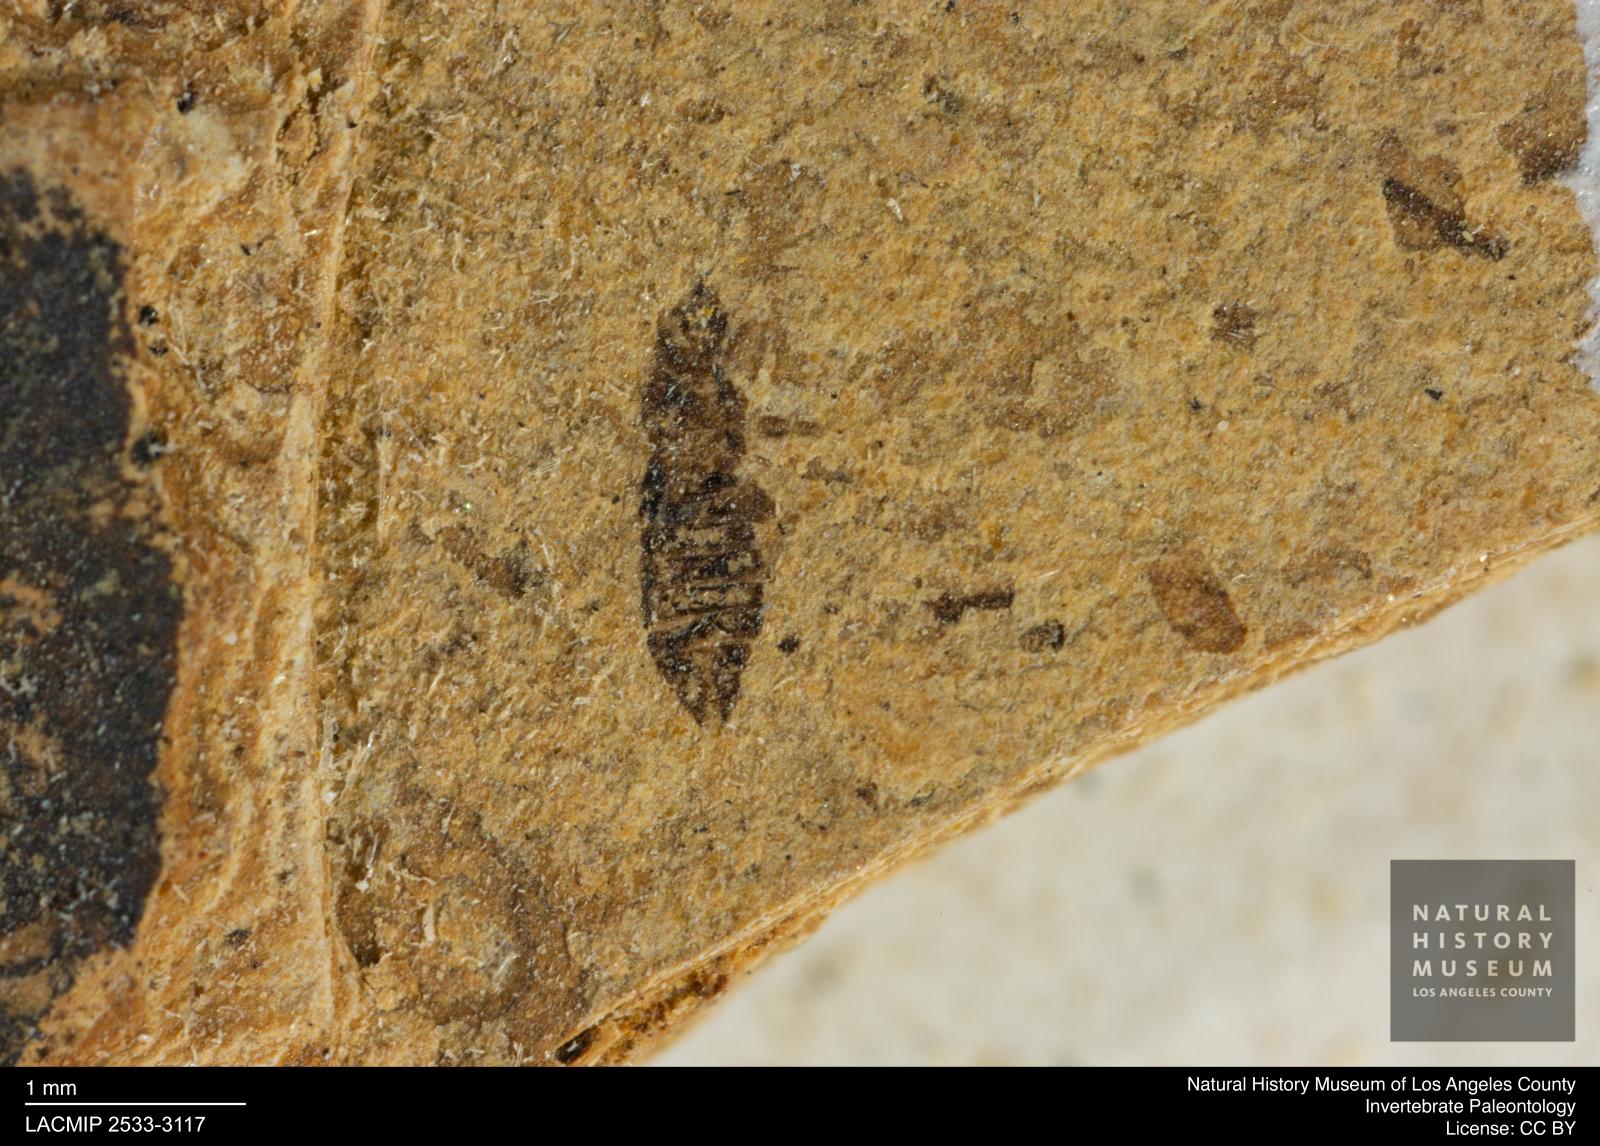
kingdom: Animalia
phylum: Arthropoda
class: Insecta
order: Thysanoptera
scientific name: Thysanoptera
